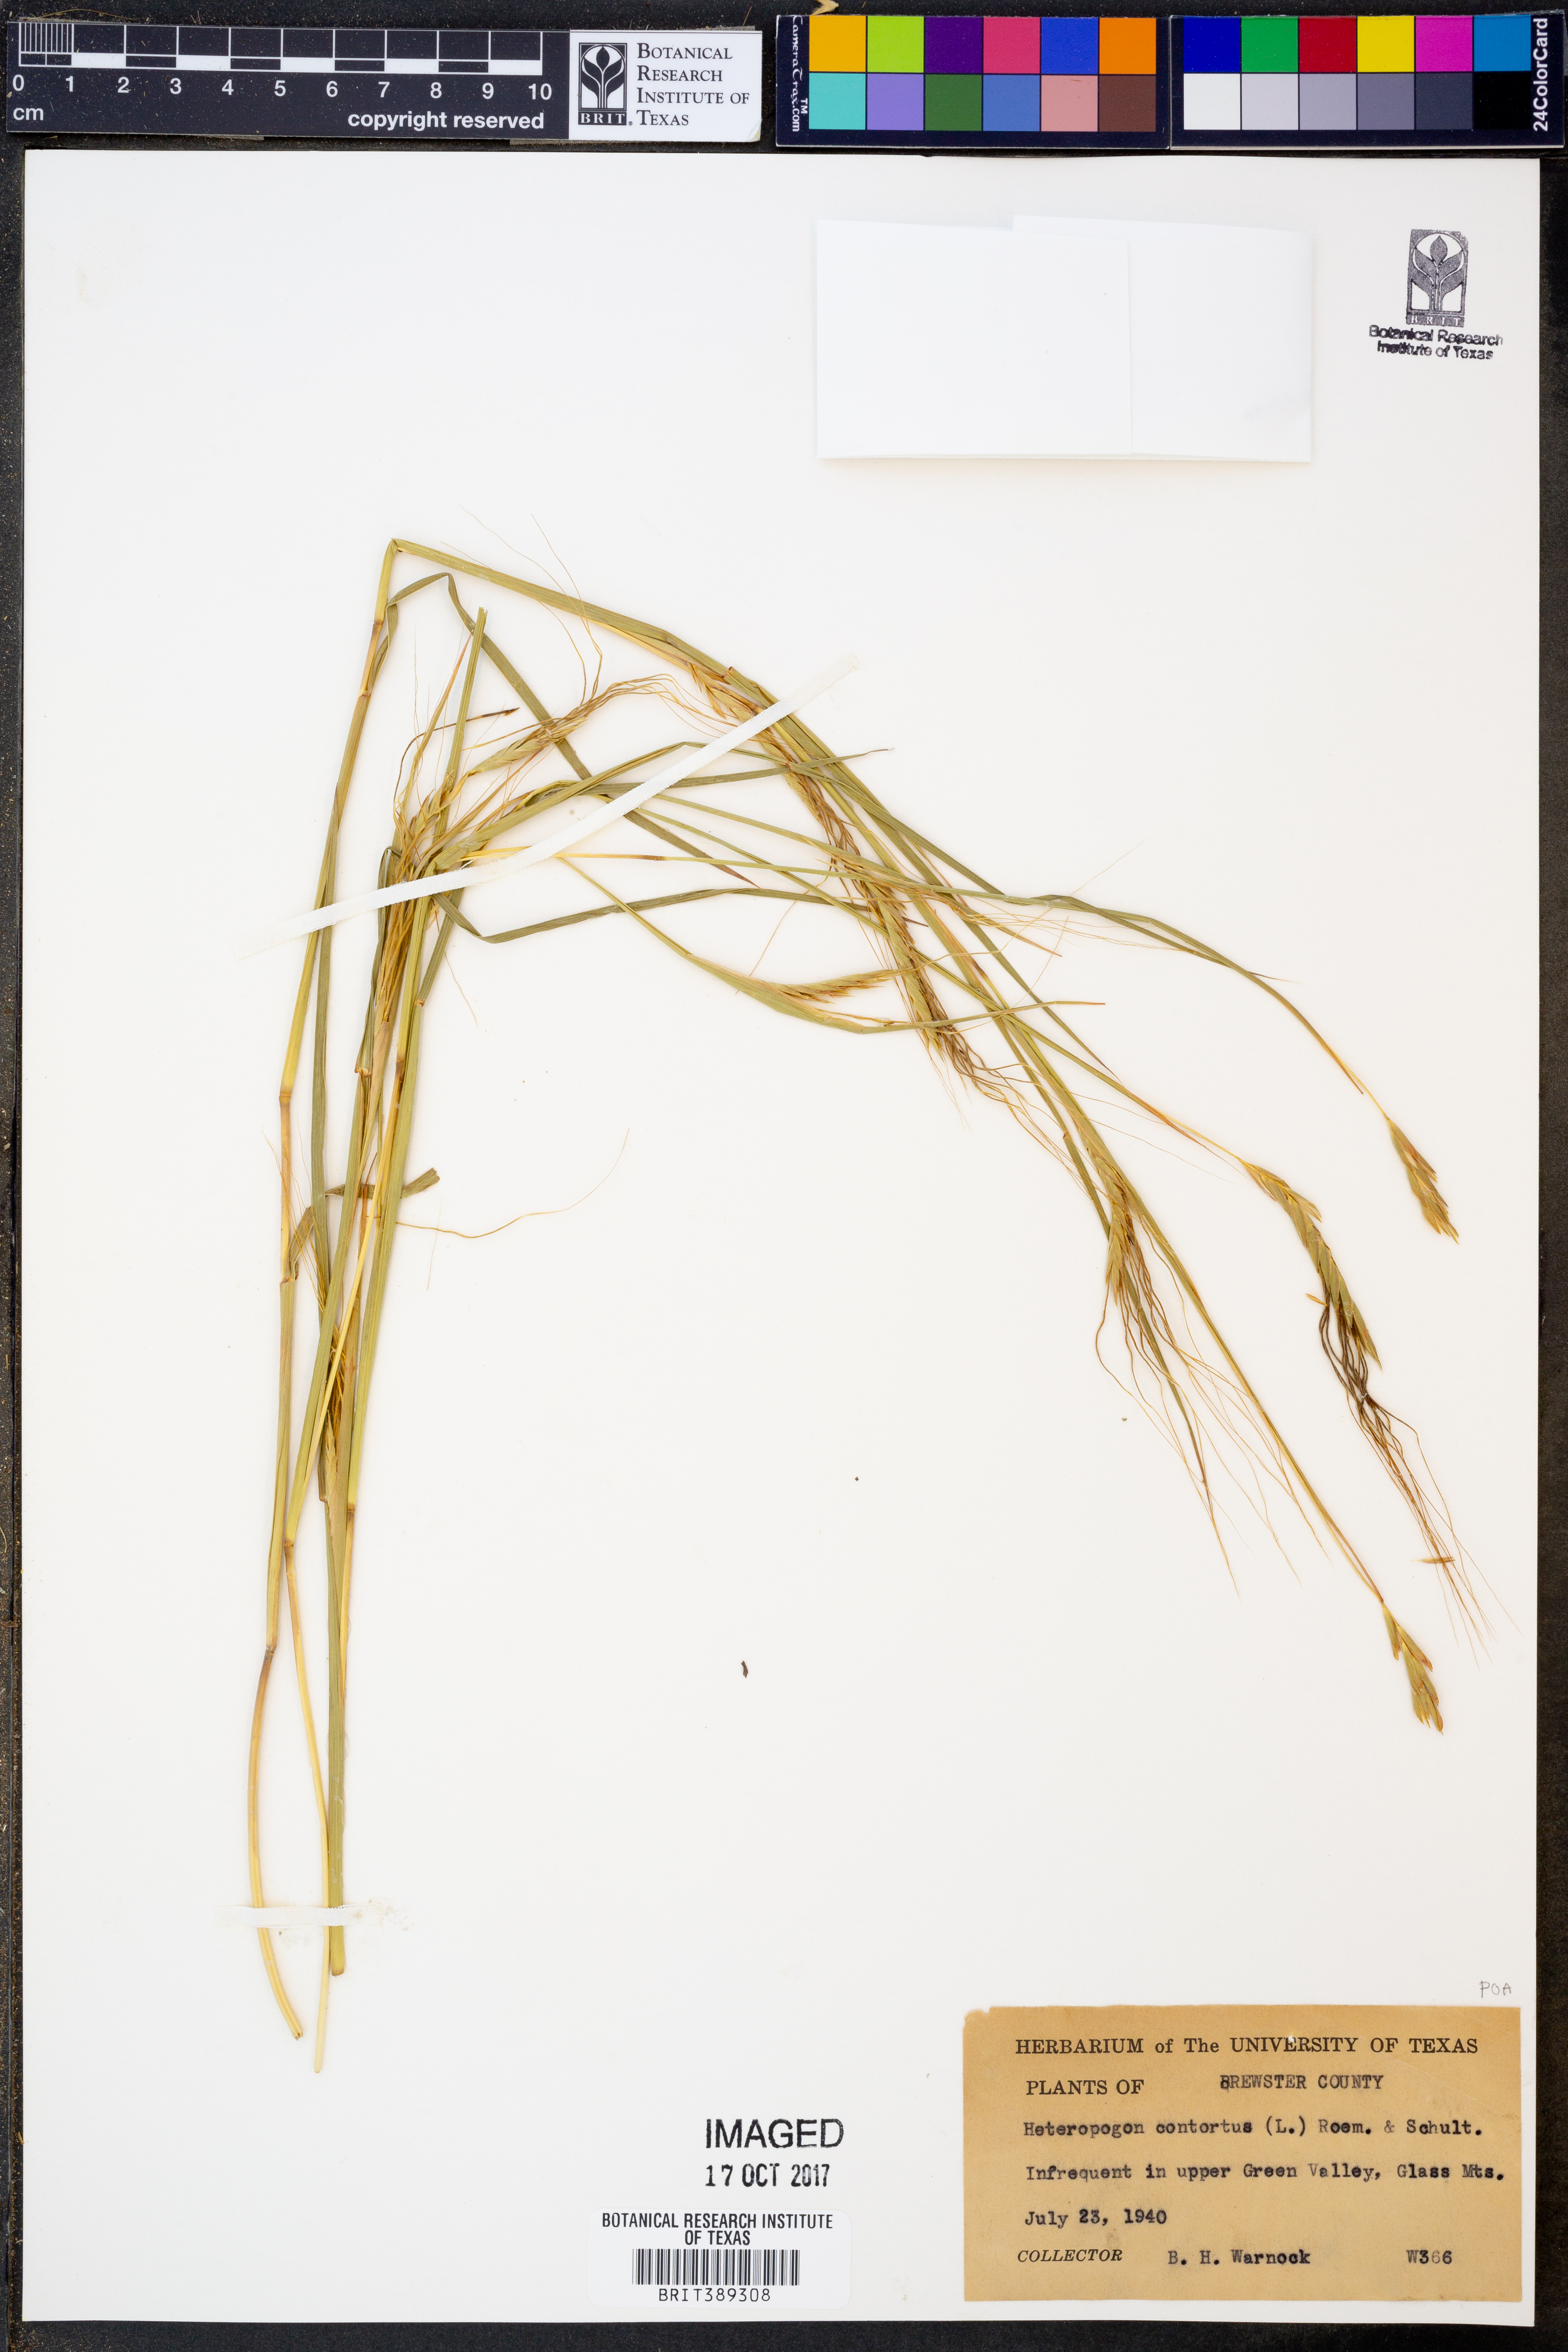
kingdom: Plantae
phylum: Tracheophyta
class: Liliopsida
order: Poales
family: Poaceae
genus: Heteropogon
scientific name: Heteropogon contortus
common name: Tanglehead
